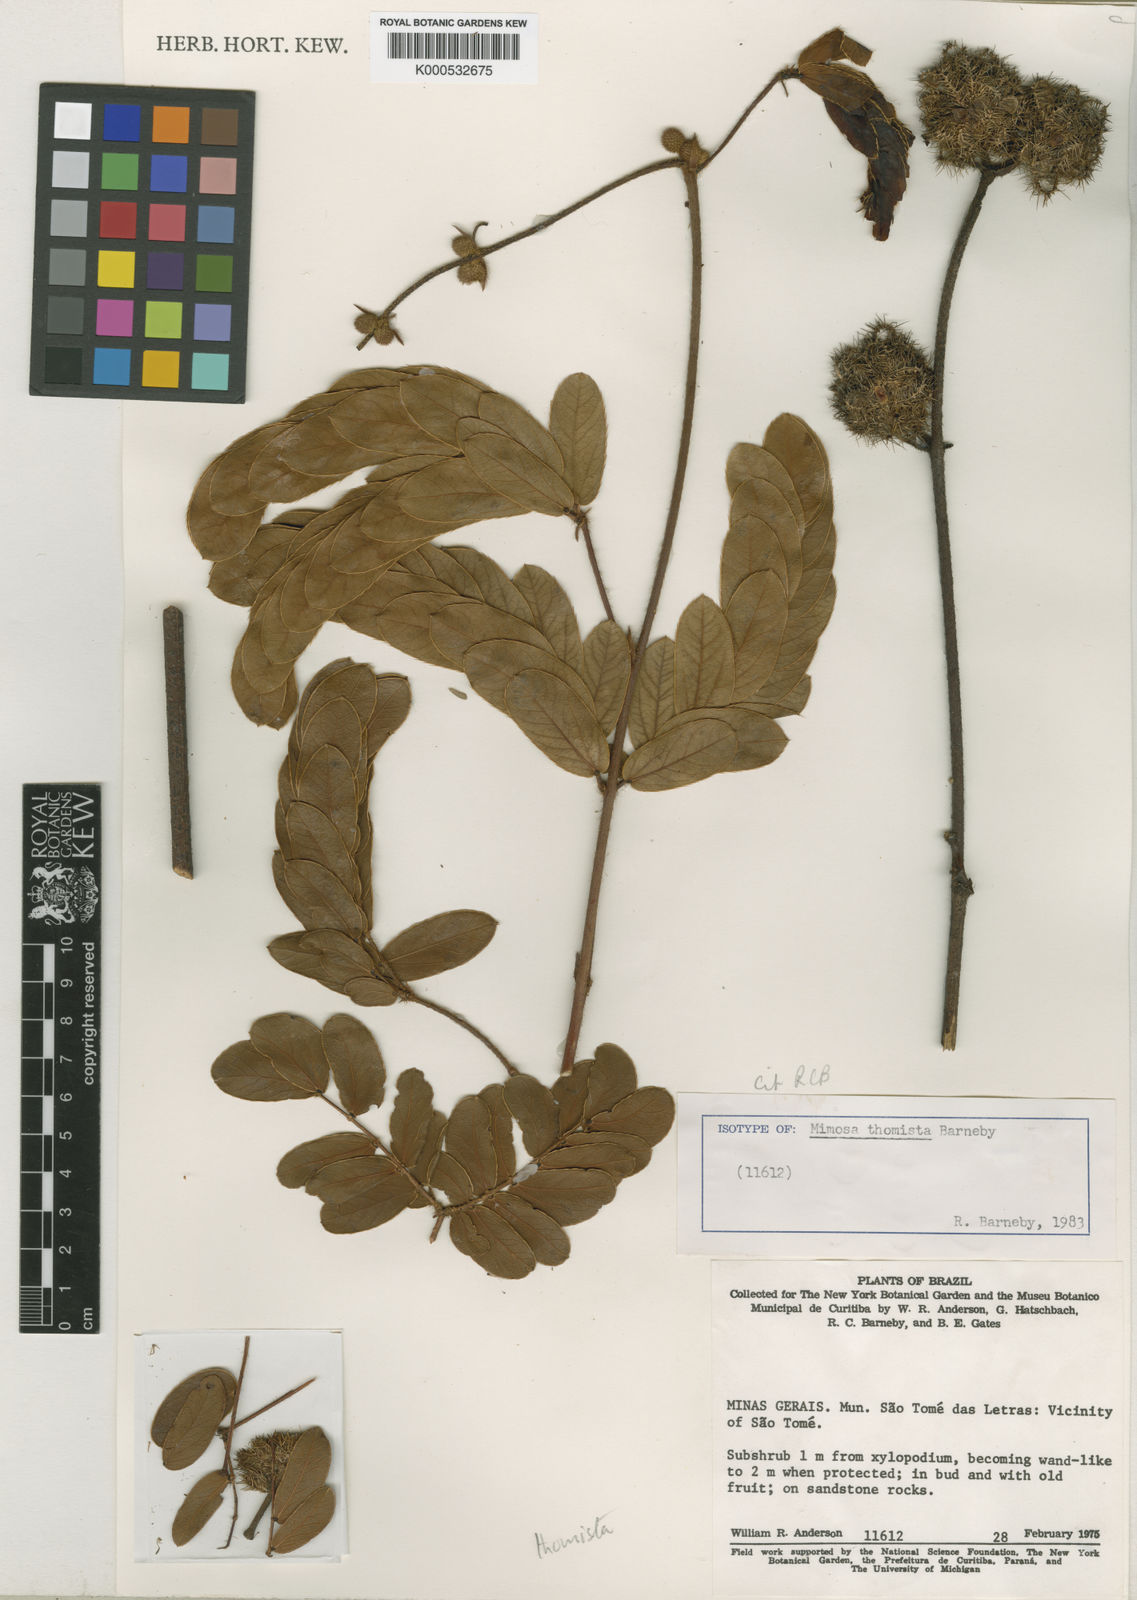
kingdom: Plantae
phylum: Tracheophyta
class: Magnoliopsida
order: Fabales
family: Fabaceae
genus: Mimosa
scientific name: Mimosa thomista
